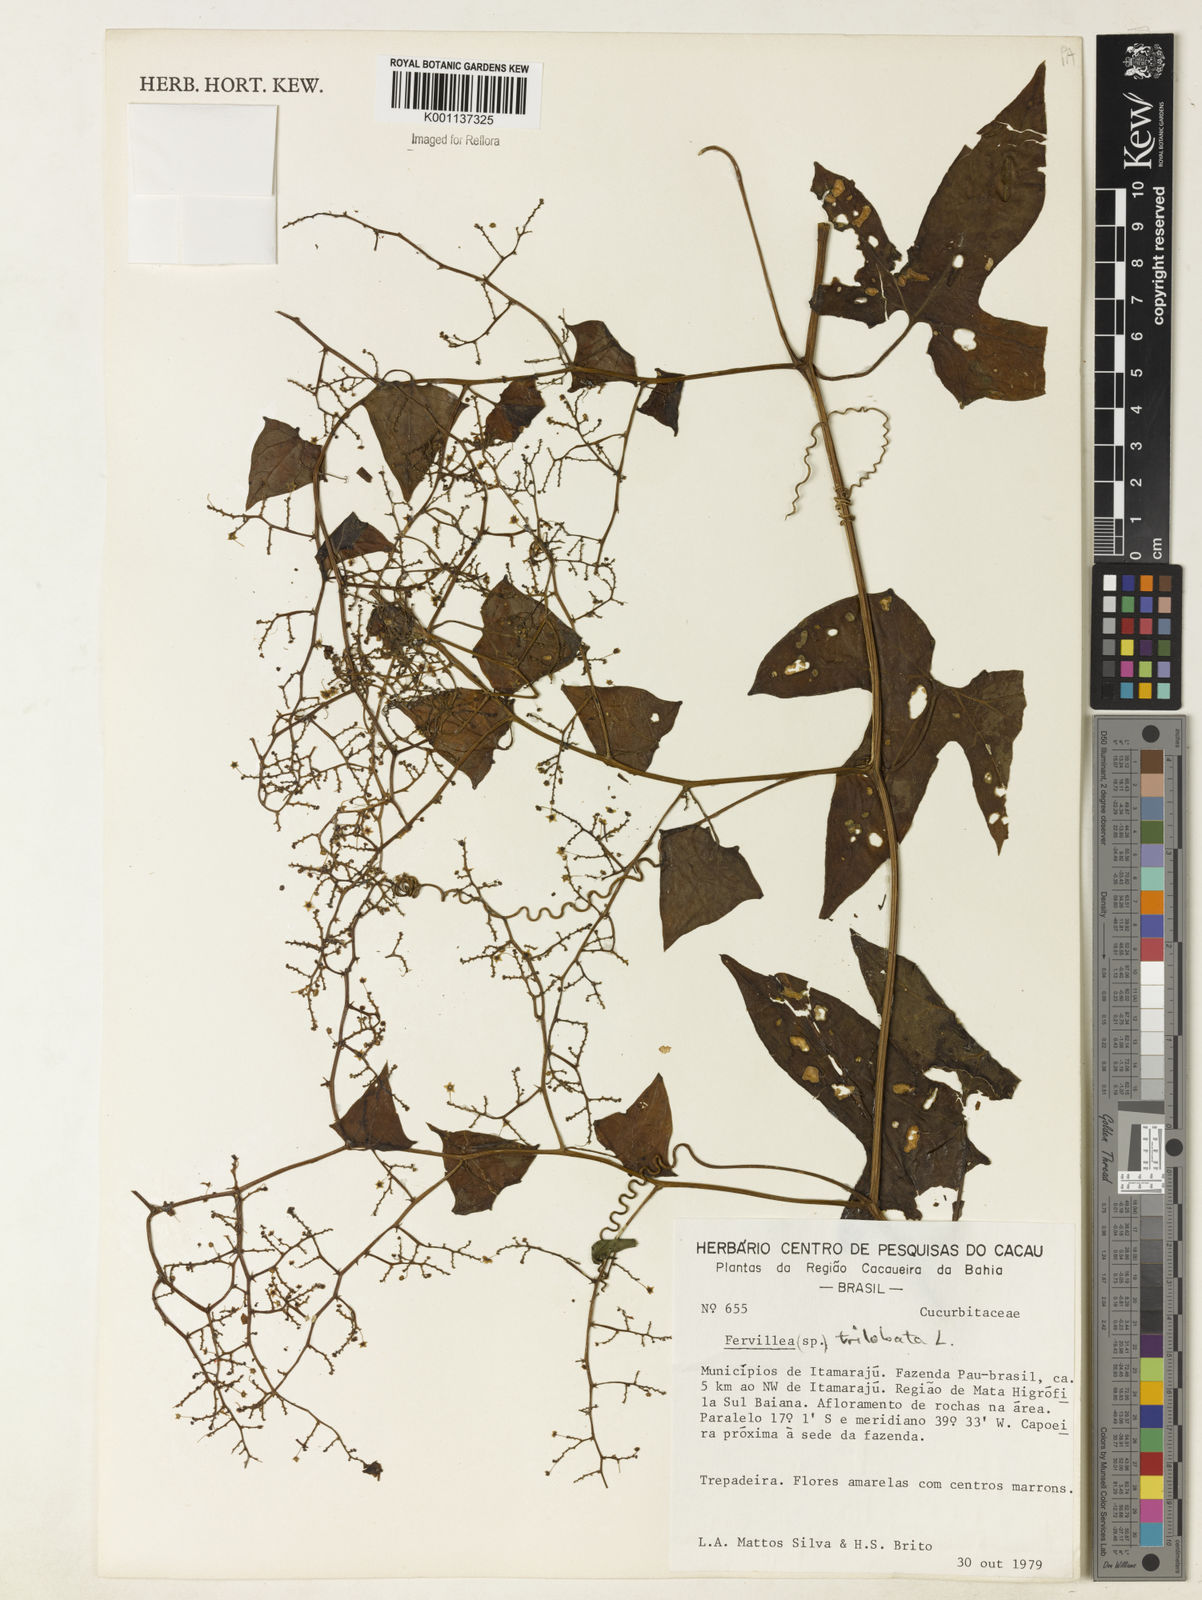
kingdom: Plantae
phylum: Tracheophyta
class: Magnoliopsida
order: Cucurbitales
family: Cucurbitaceae
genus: Fevillea
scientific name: Fevillea trilobata
